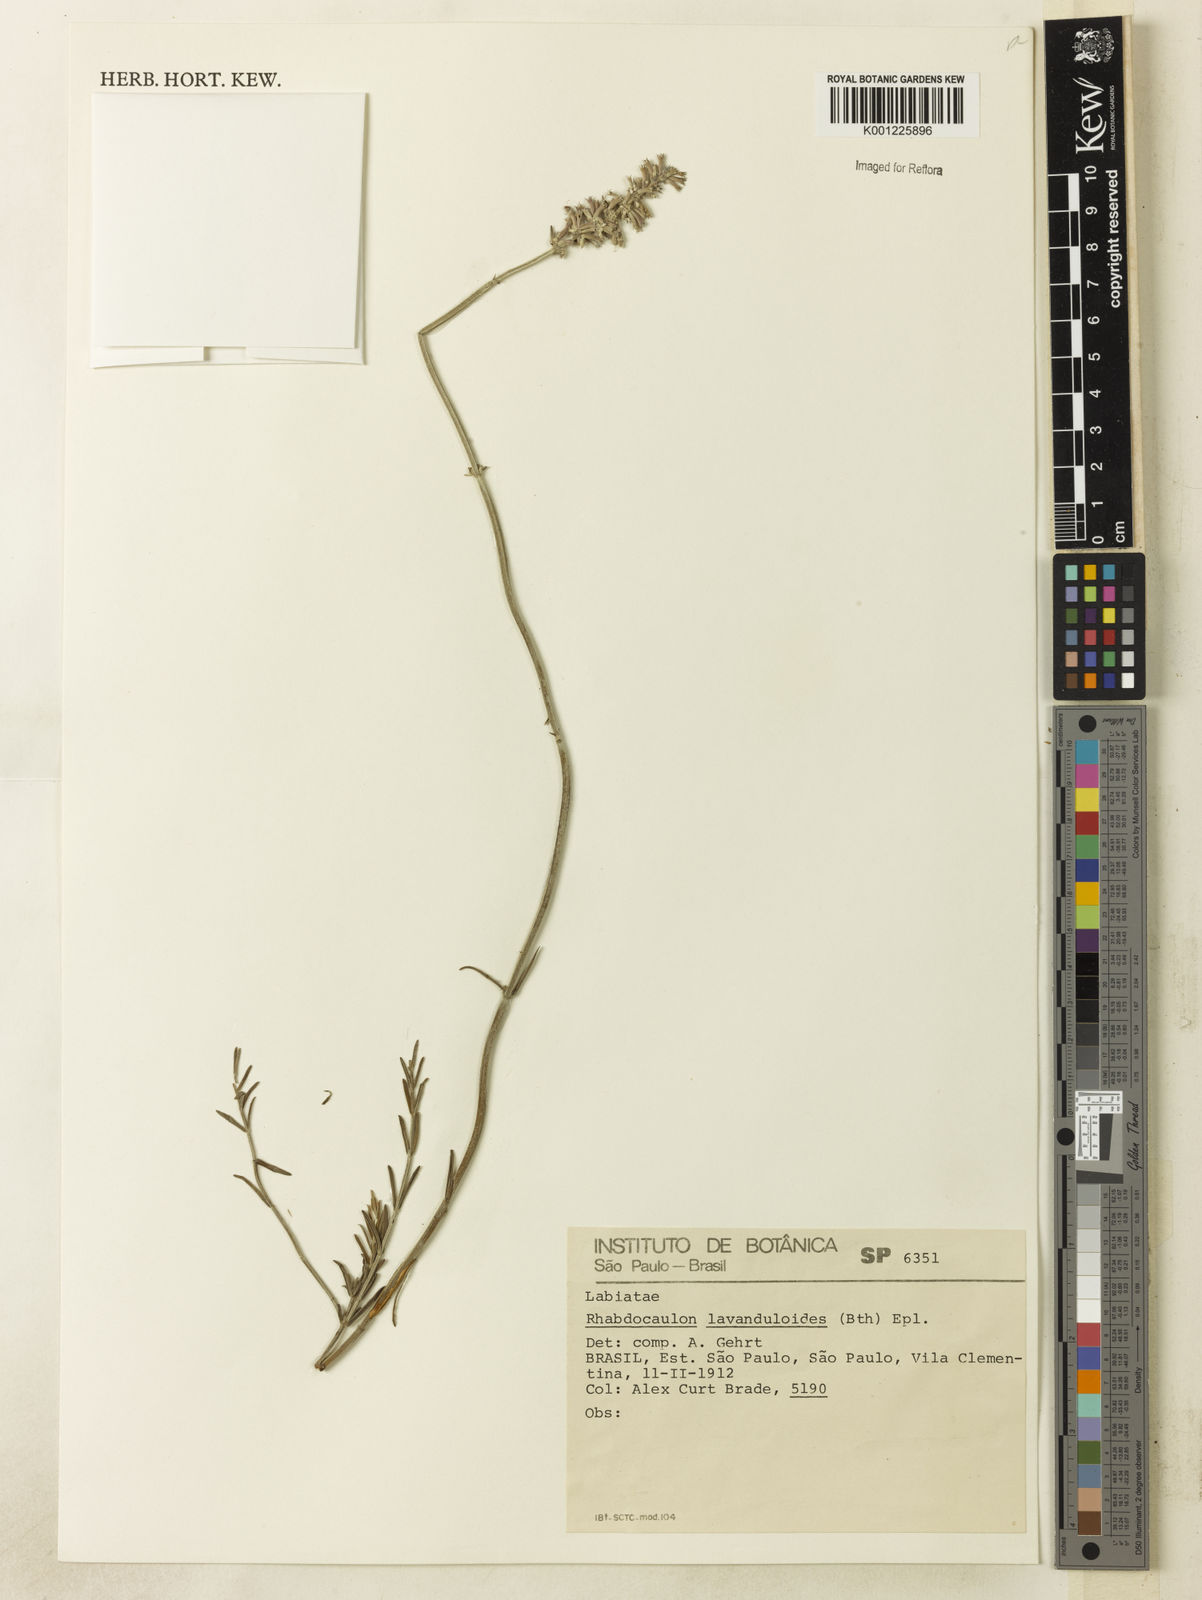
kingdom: Plantae
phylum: Tracheophyta
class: Magnoliopsida
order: Lamiales
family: Lamiaceae
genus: Rhabdocaulon
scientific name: Rhabdocaulon lavanduloides
